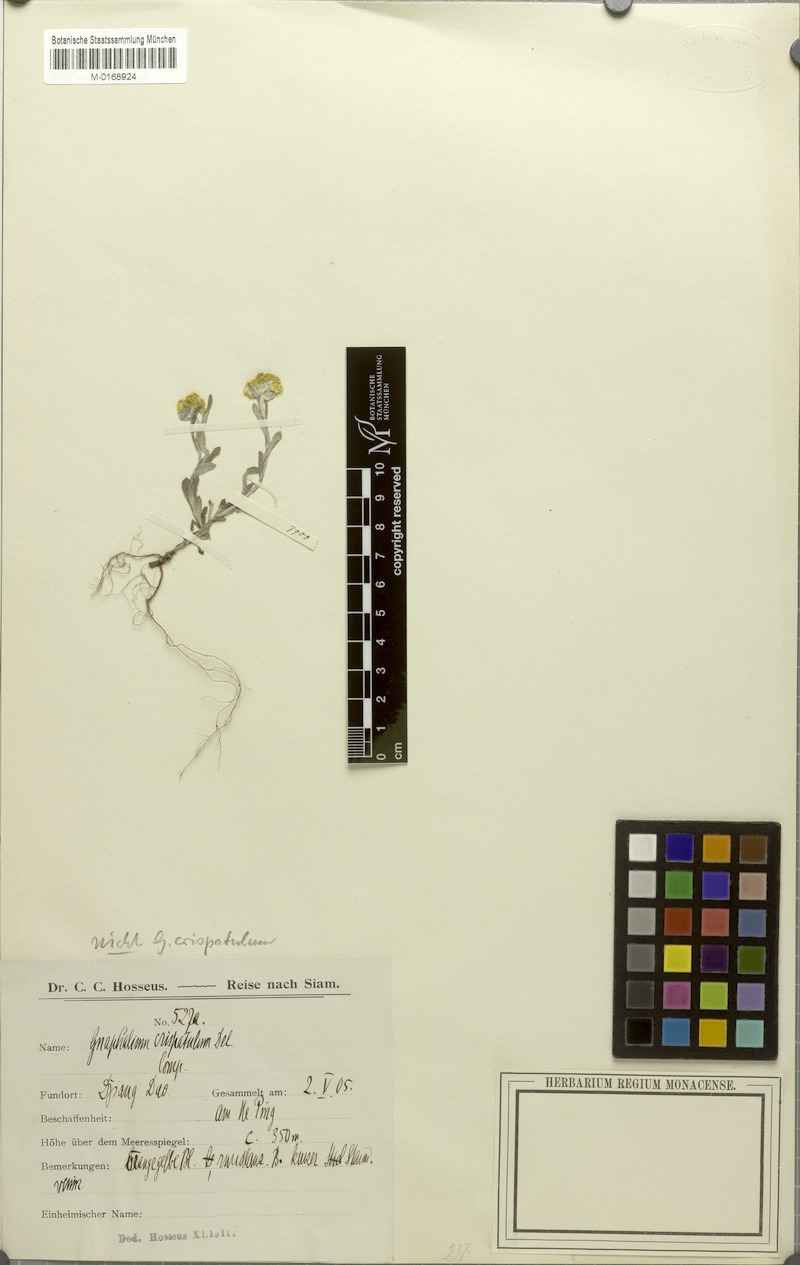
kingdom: Plantae
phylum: Tracheophyta
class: Magnoliopsida
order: Asterales
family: Asteraceae
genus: Gnomophalium
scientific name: Gnomophalium pulvinatum
